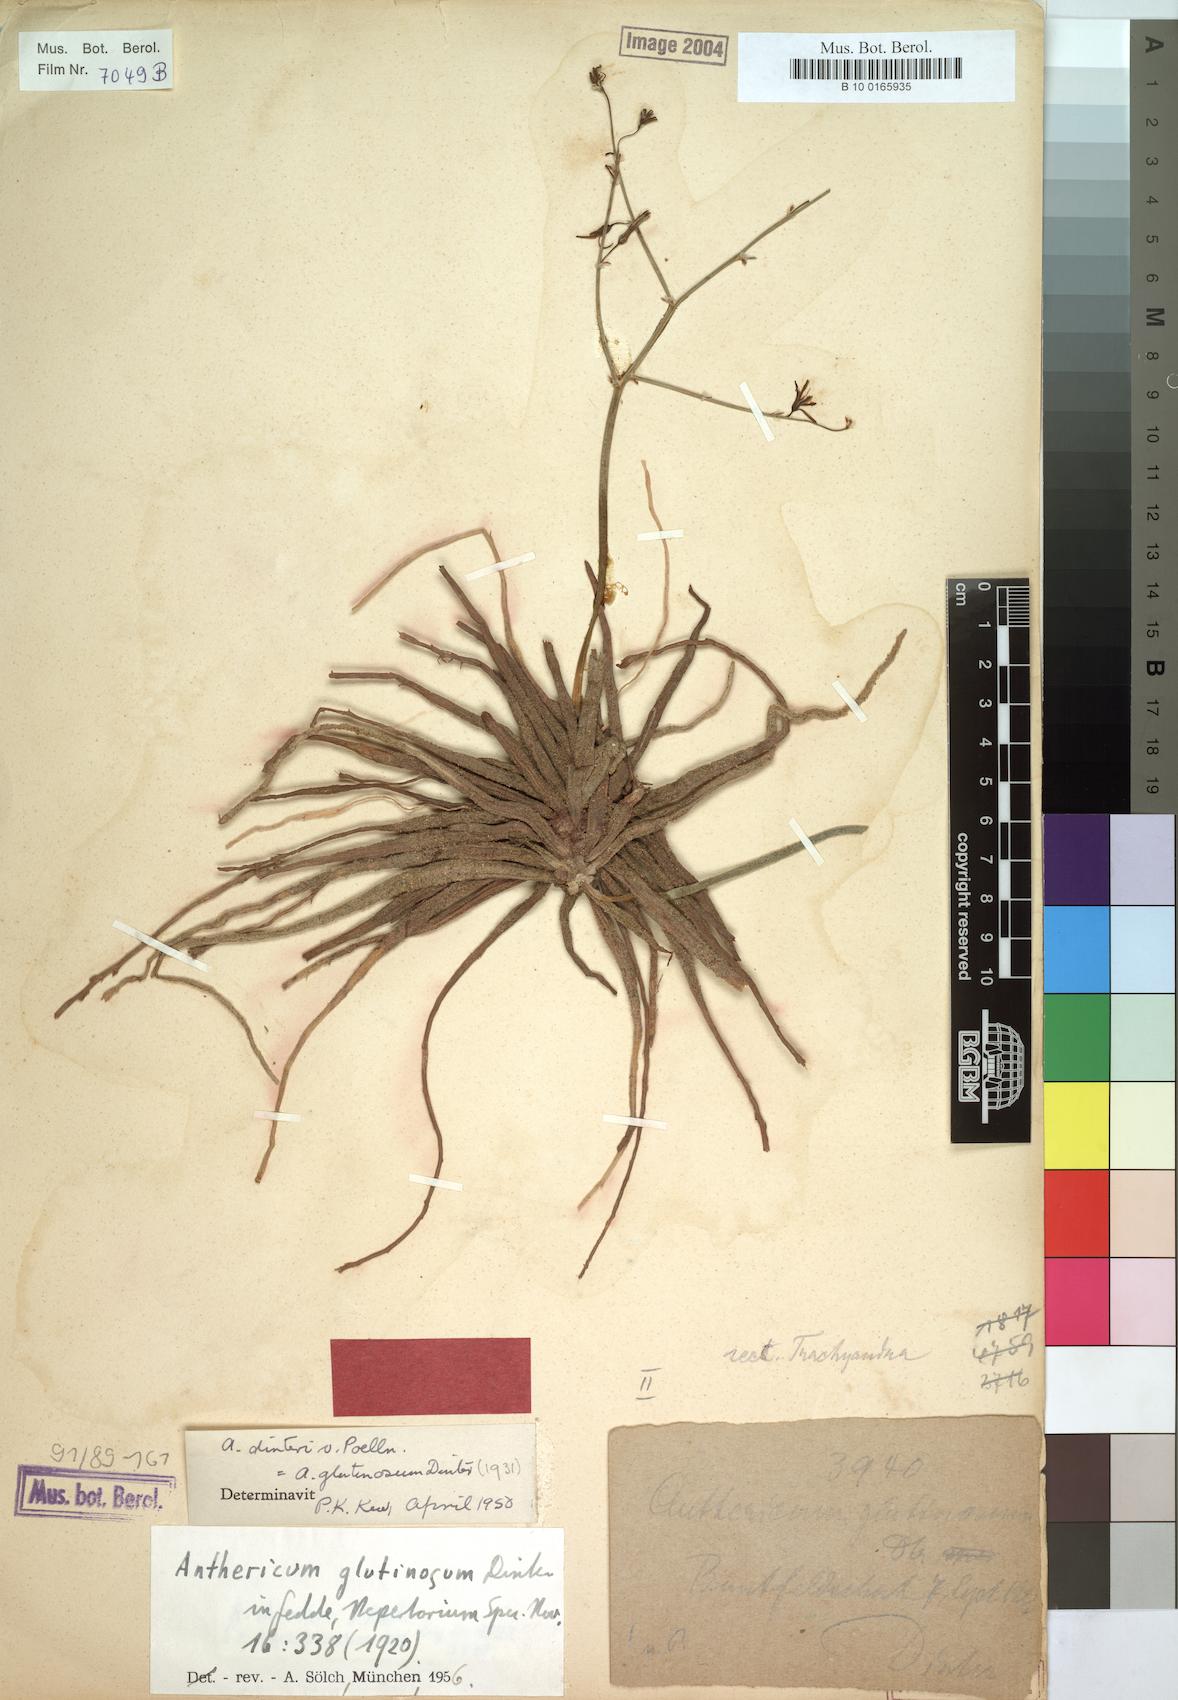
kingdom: Plantae
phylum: Tracheophyta
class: Liliopsida
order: Asparagales
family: Asphodelaceae
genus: Trachyandra
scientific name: Trachyandra laxa
